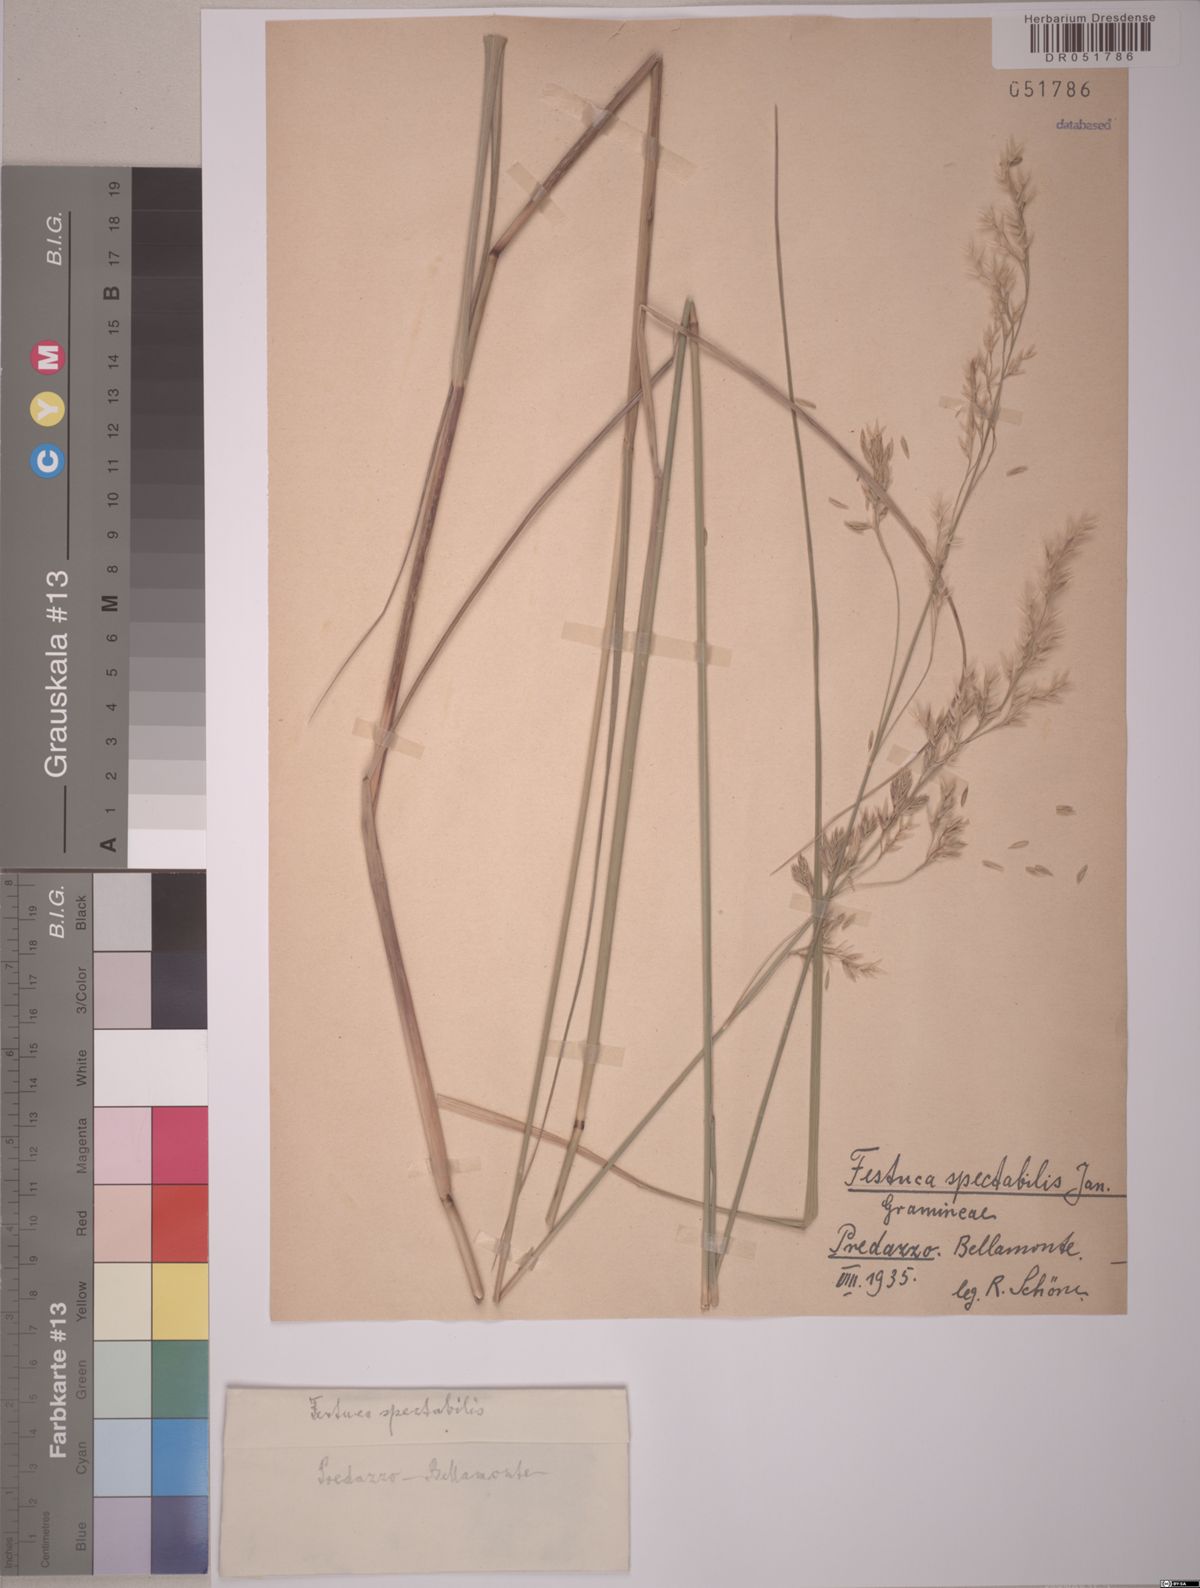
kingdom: Plantae
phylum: Tracheophyta
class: Liliopsida
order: Poales
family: Poaceae
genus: Festuca
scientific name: Festuca spectabilis
